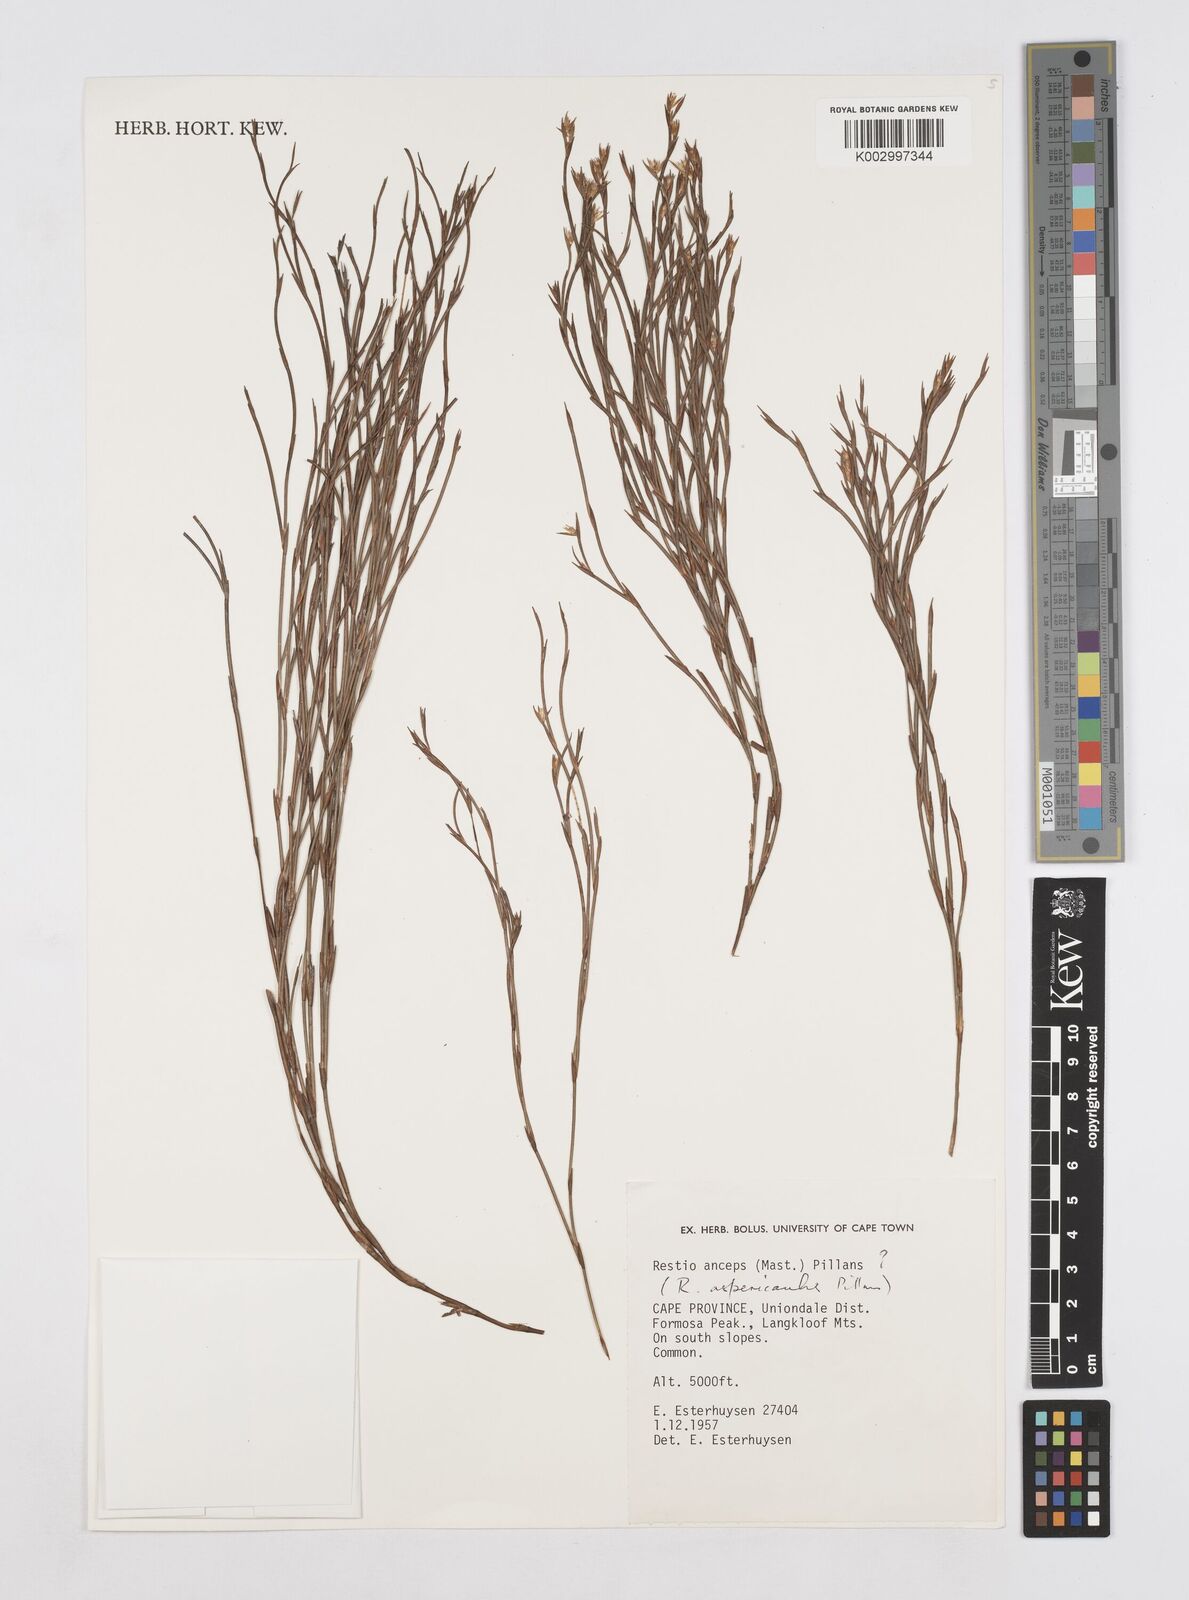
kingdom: Plantae
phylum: Tracheophyta
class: Liliopsida
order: Poales
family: Restionaceae
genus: Platycaulos
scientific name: Platycaulos
